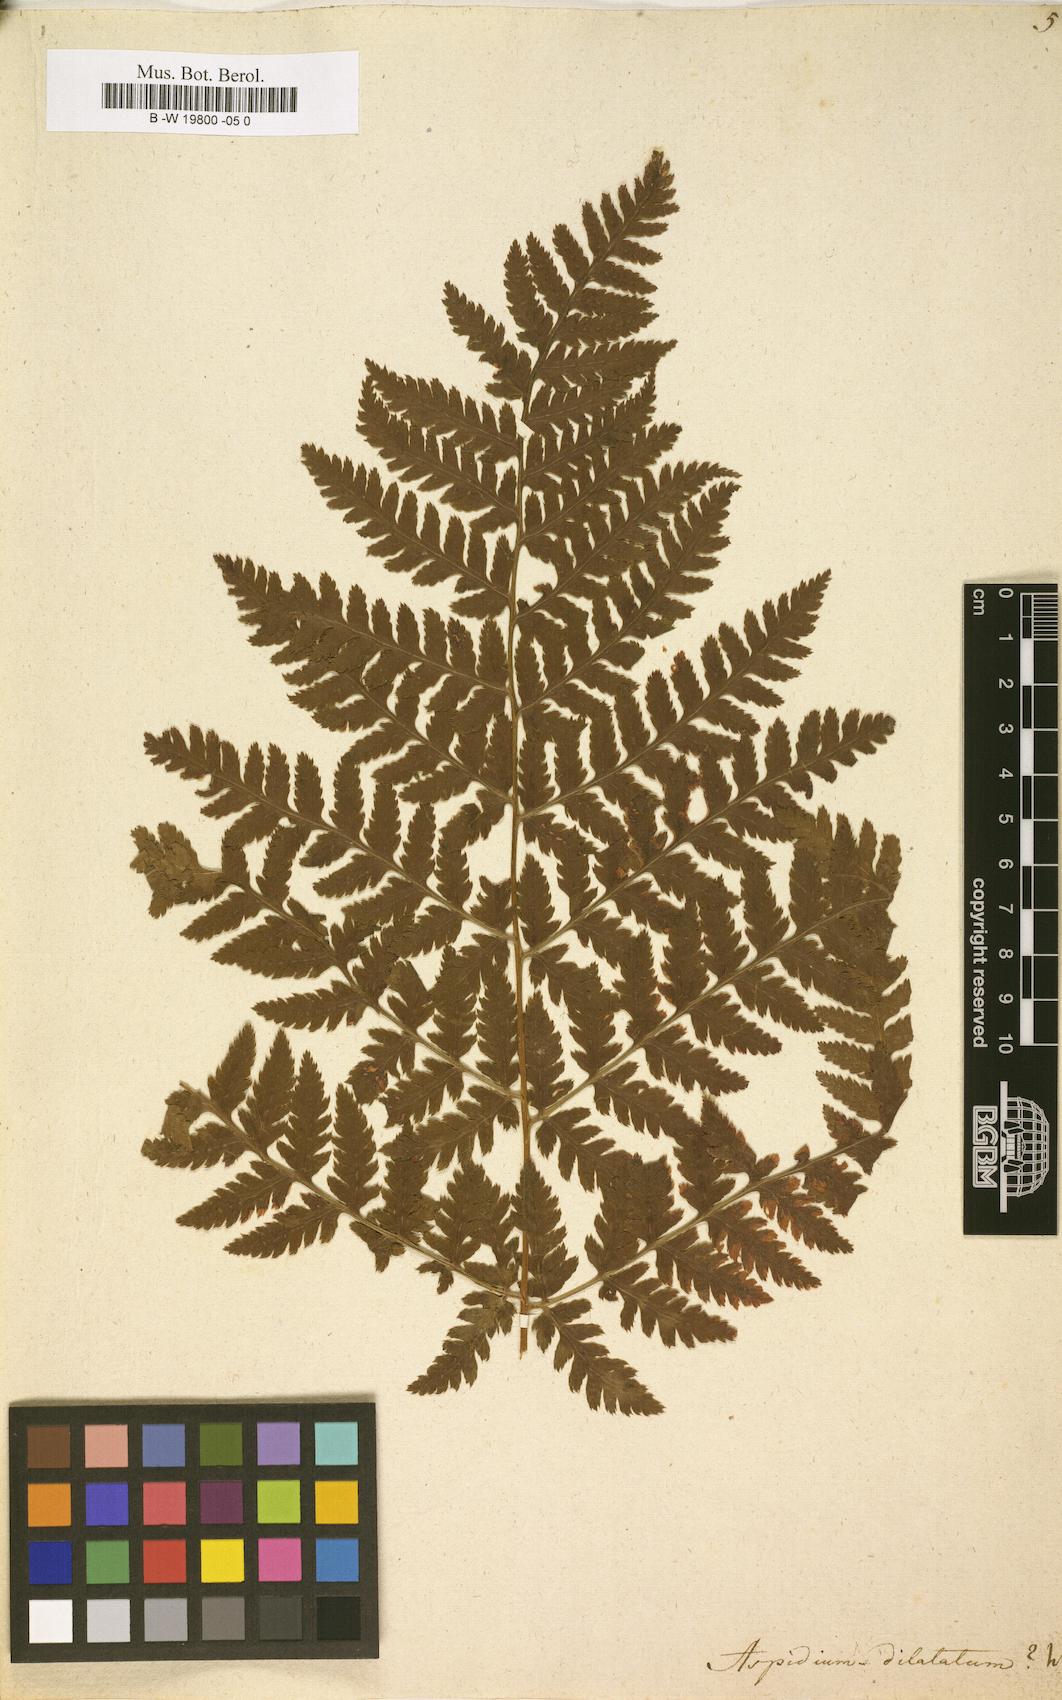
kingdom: Plantae
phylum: Tracheophyta
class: Polypodiopsida
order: Polypodiales
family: Dryopteridaceae
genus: Dryopteris
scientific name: Dryopteris dilatata
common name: Broad buckler-fern
